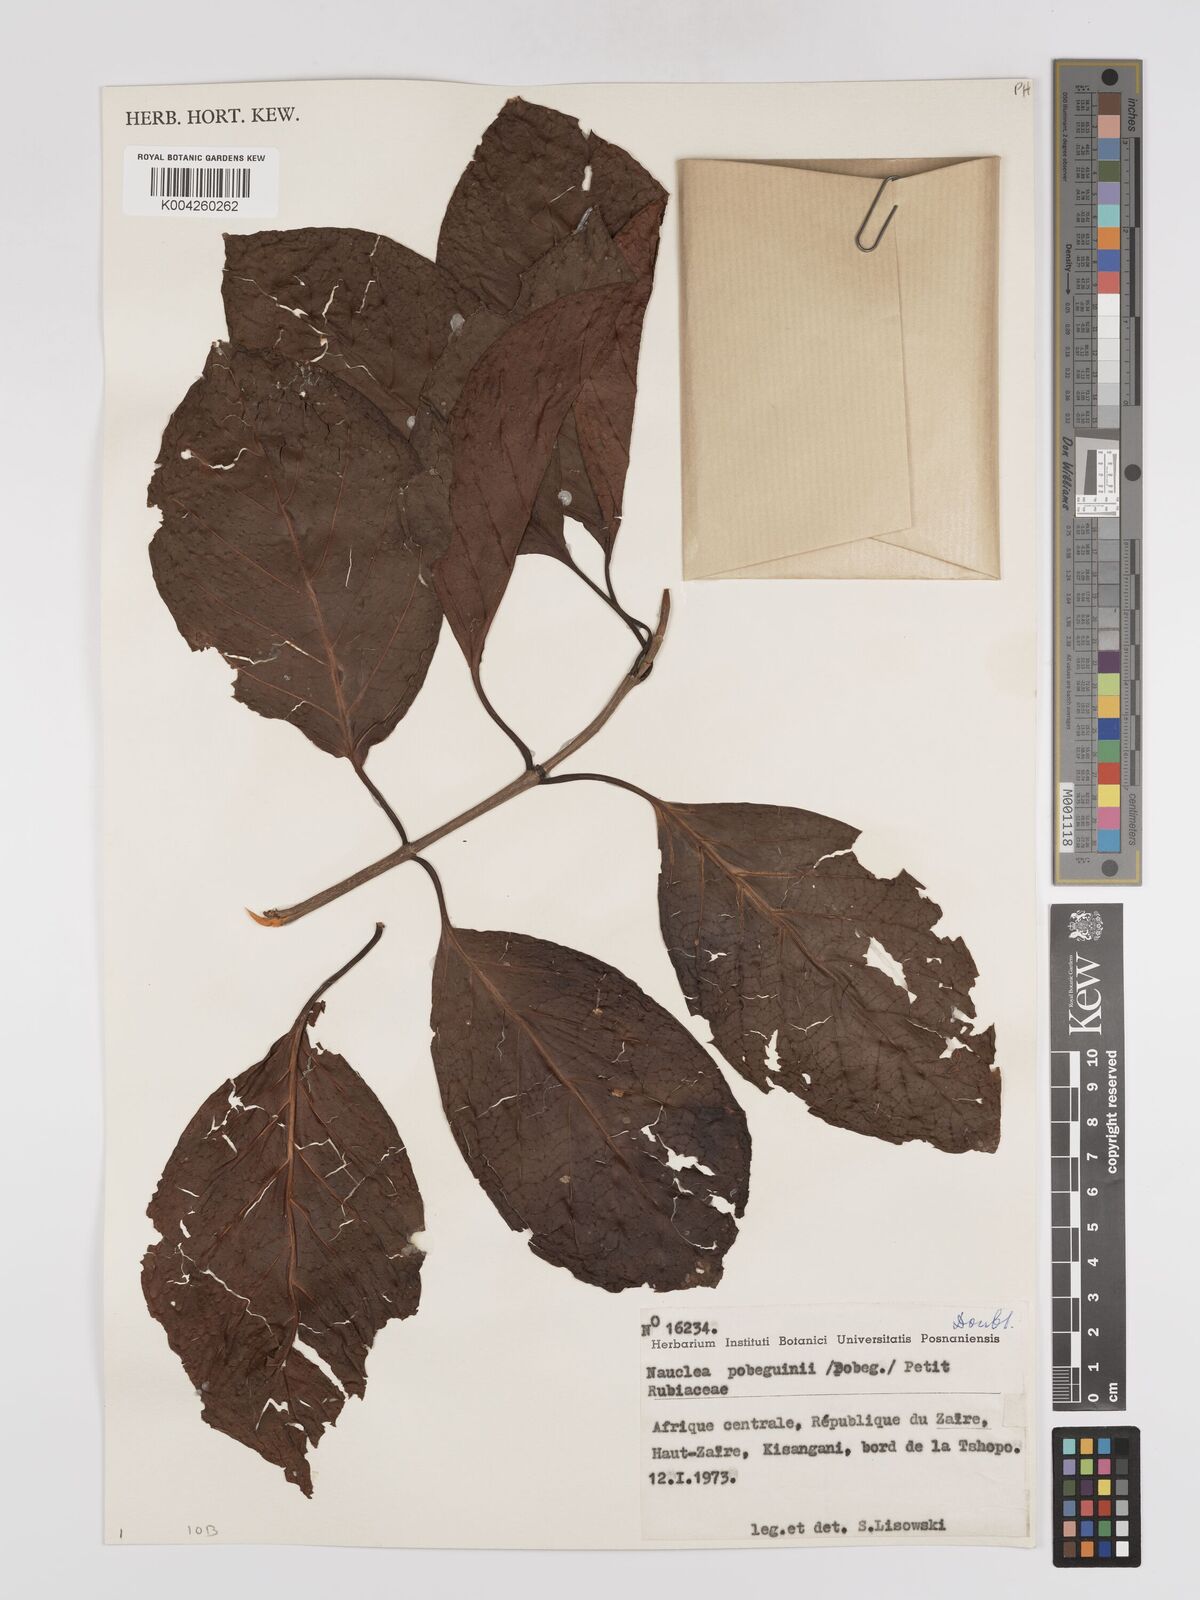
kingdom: Plantae
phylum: Tracheophyta
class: Magnoliopsida
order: Gentianales
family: Rubiaceae
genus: Nauclea
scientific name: Nauclea pobeguinii
